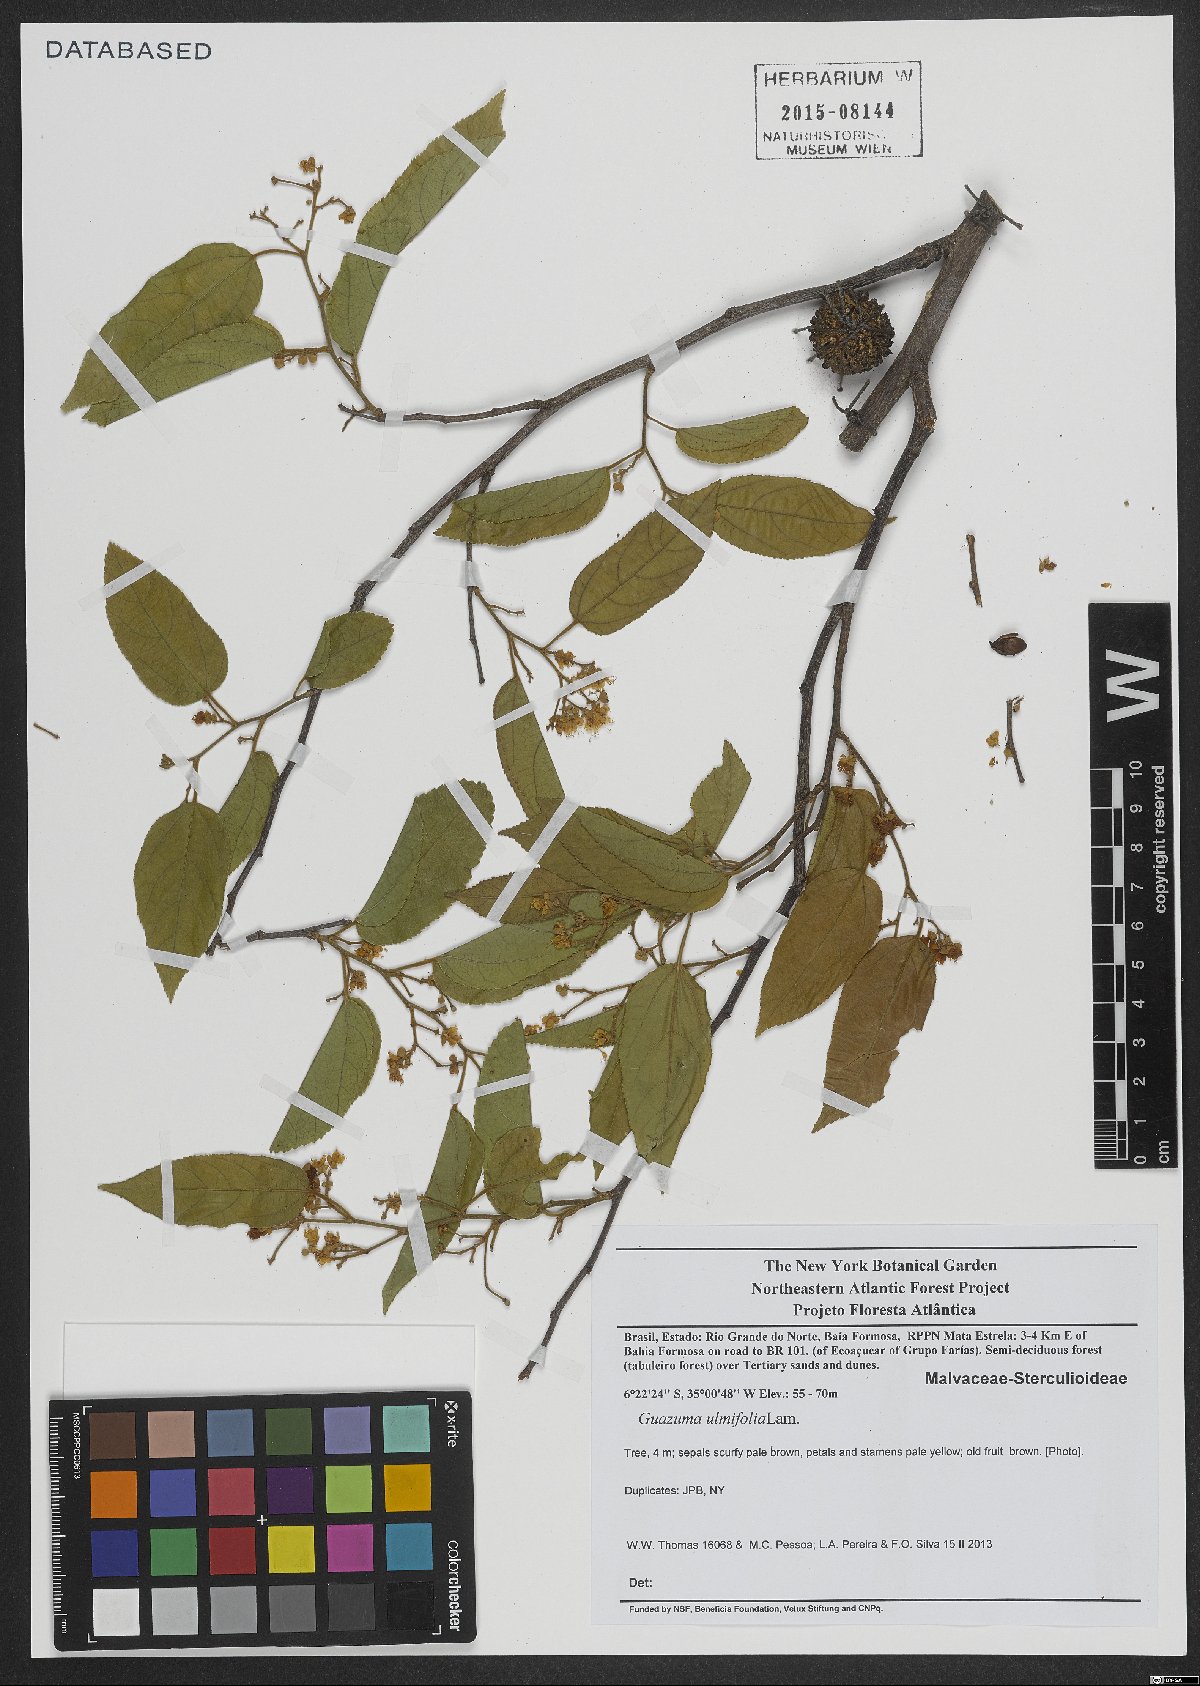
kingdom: Plantae
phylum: Tracheophyta
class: Magnoliopsida
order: Malvales
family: Malvaceae
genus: Guazuma
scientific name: Guazuma ulmifolia
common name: Bastard-cedar
